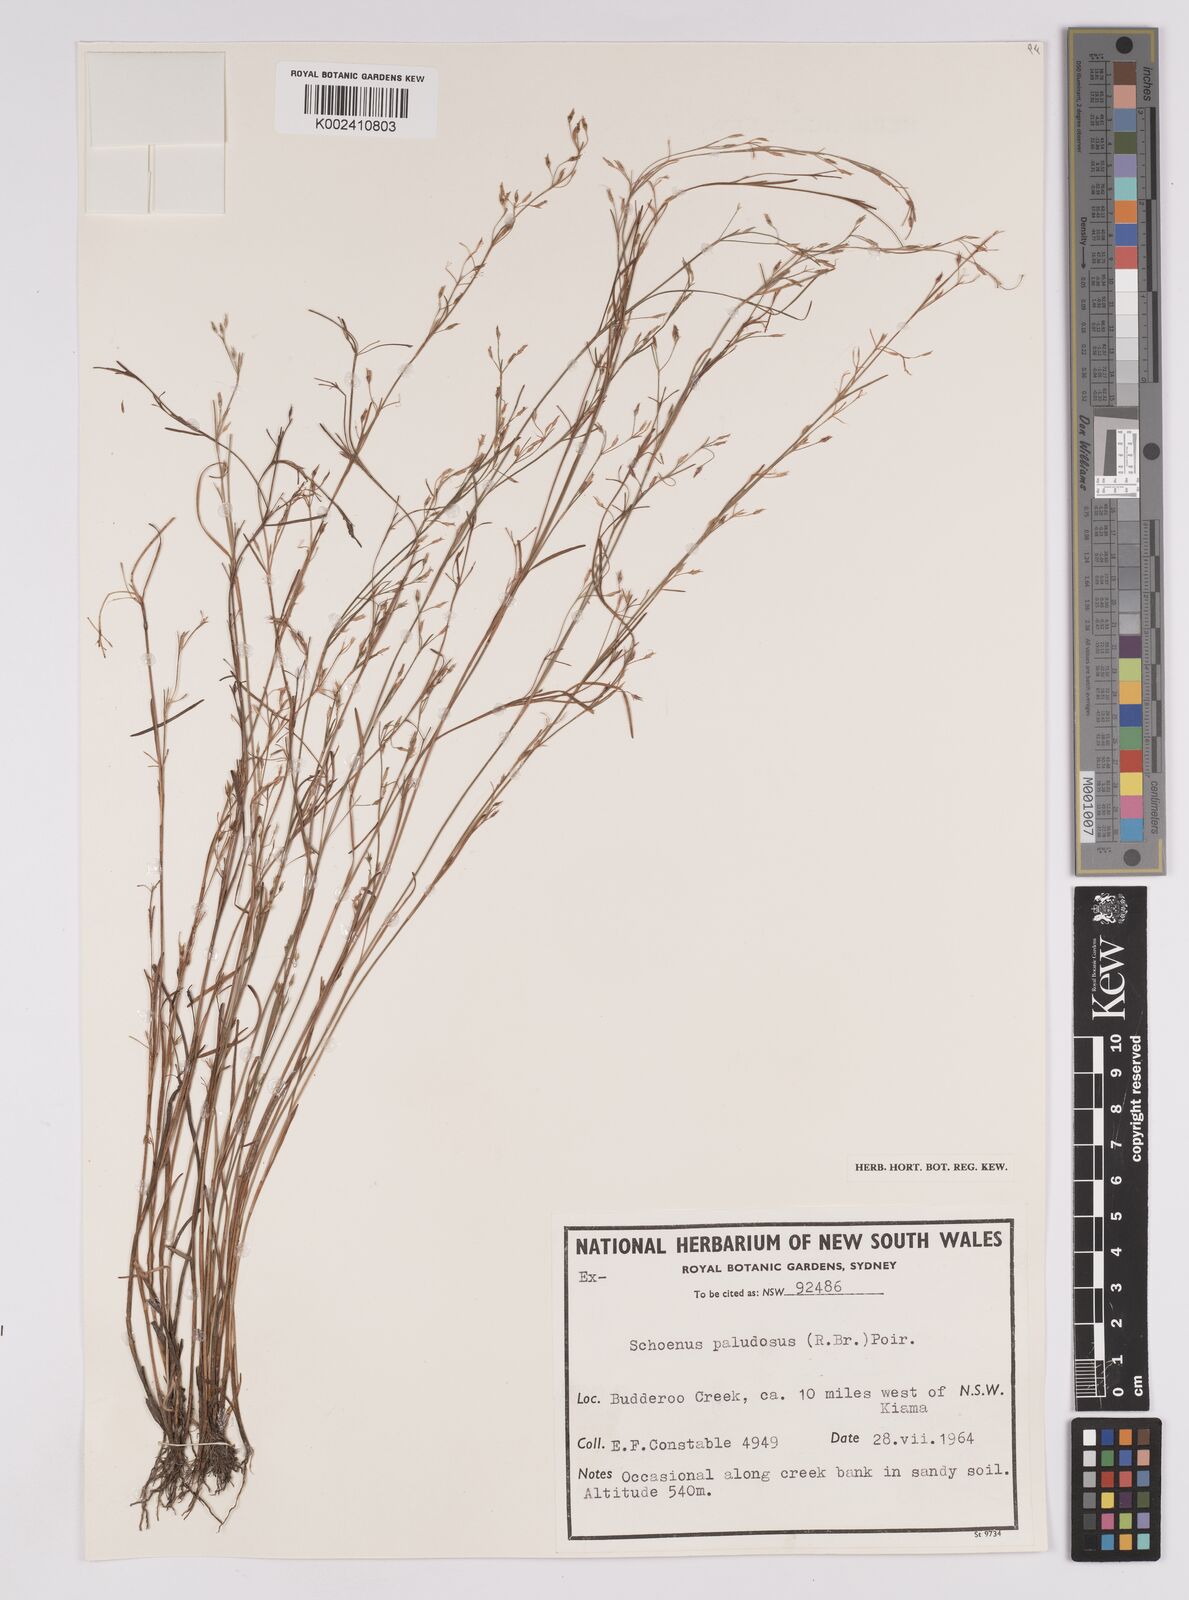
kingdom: Plantae
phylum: Tracheophyta
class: Liliopsida
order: Poales
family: Cyperaceae
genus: Anthelepis
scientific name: Anthelepis paludosa
